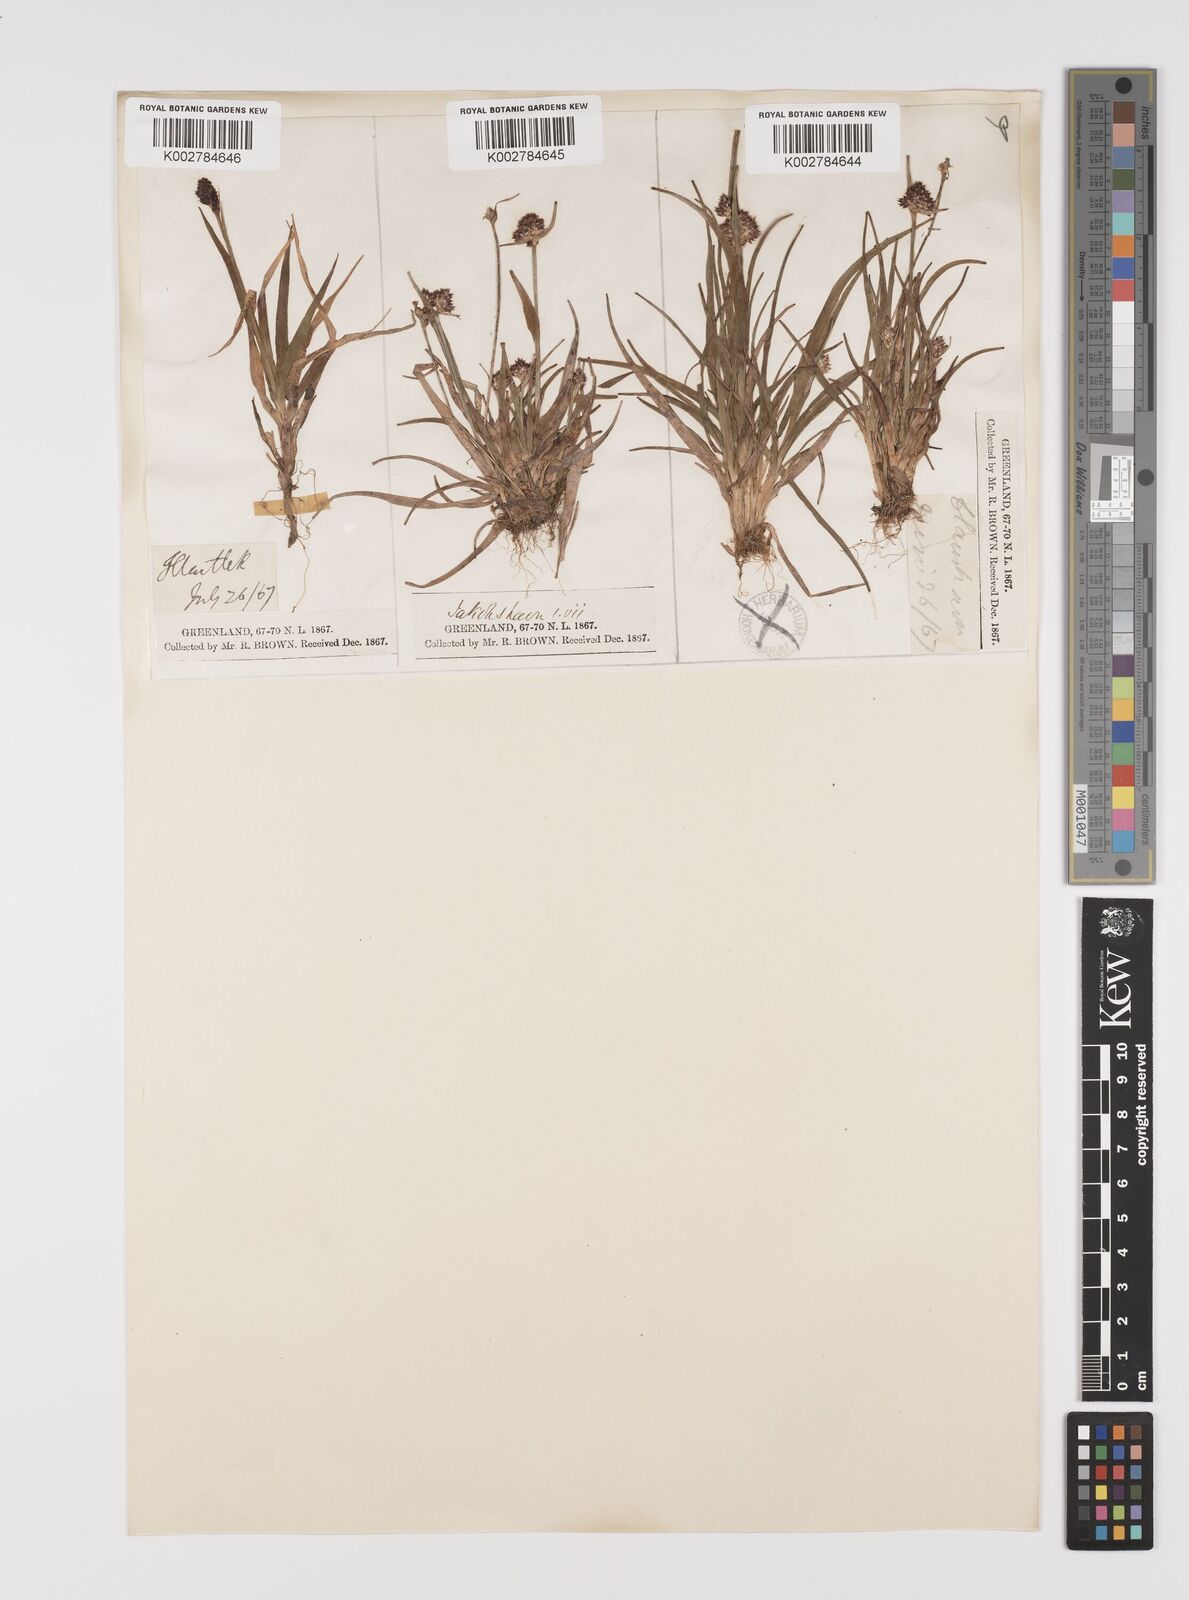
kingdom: Plantae
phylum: Tracheophyta
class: Liliopsida
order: Poales
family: Juncaceae
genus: Luzula
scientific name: Luzula campestris
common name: Field wood-rush
